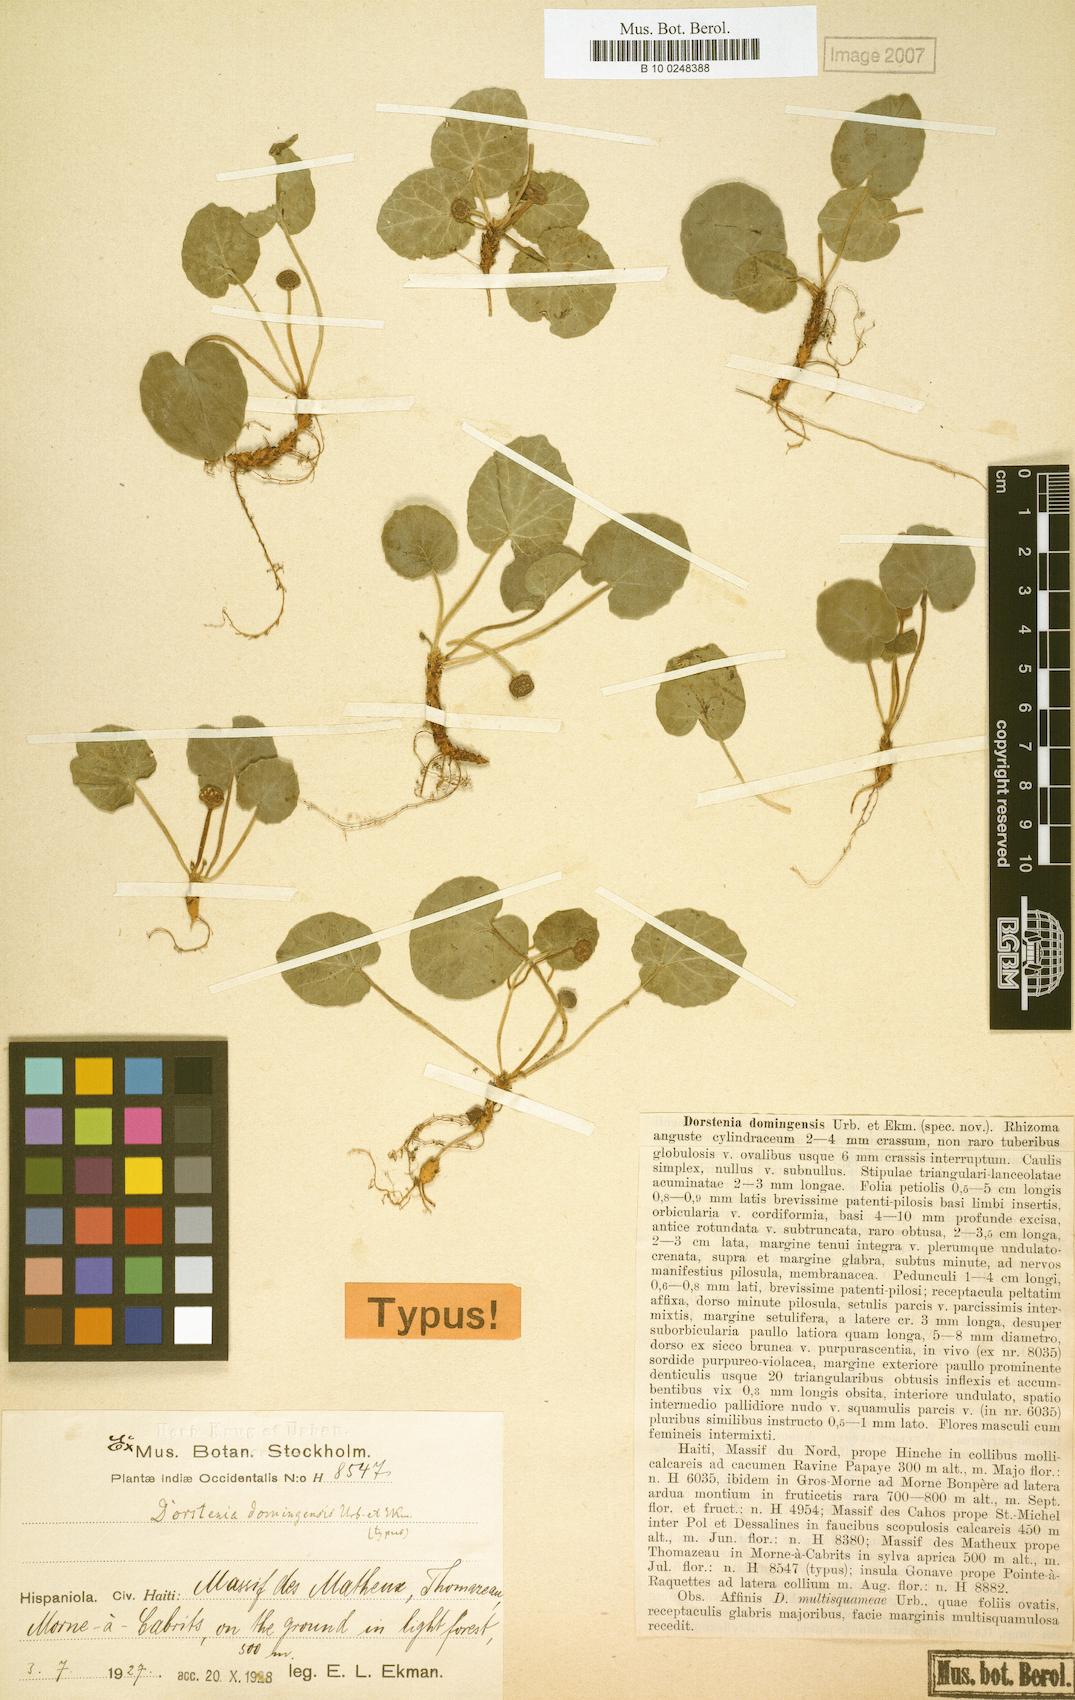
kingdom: Plantae
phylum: Tracheophyta
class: Magnoliopsida
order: Rosales
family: Moraceae
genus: Dorstenia
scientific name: Dorstenia erythrandra
